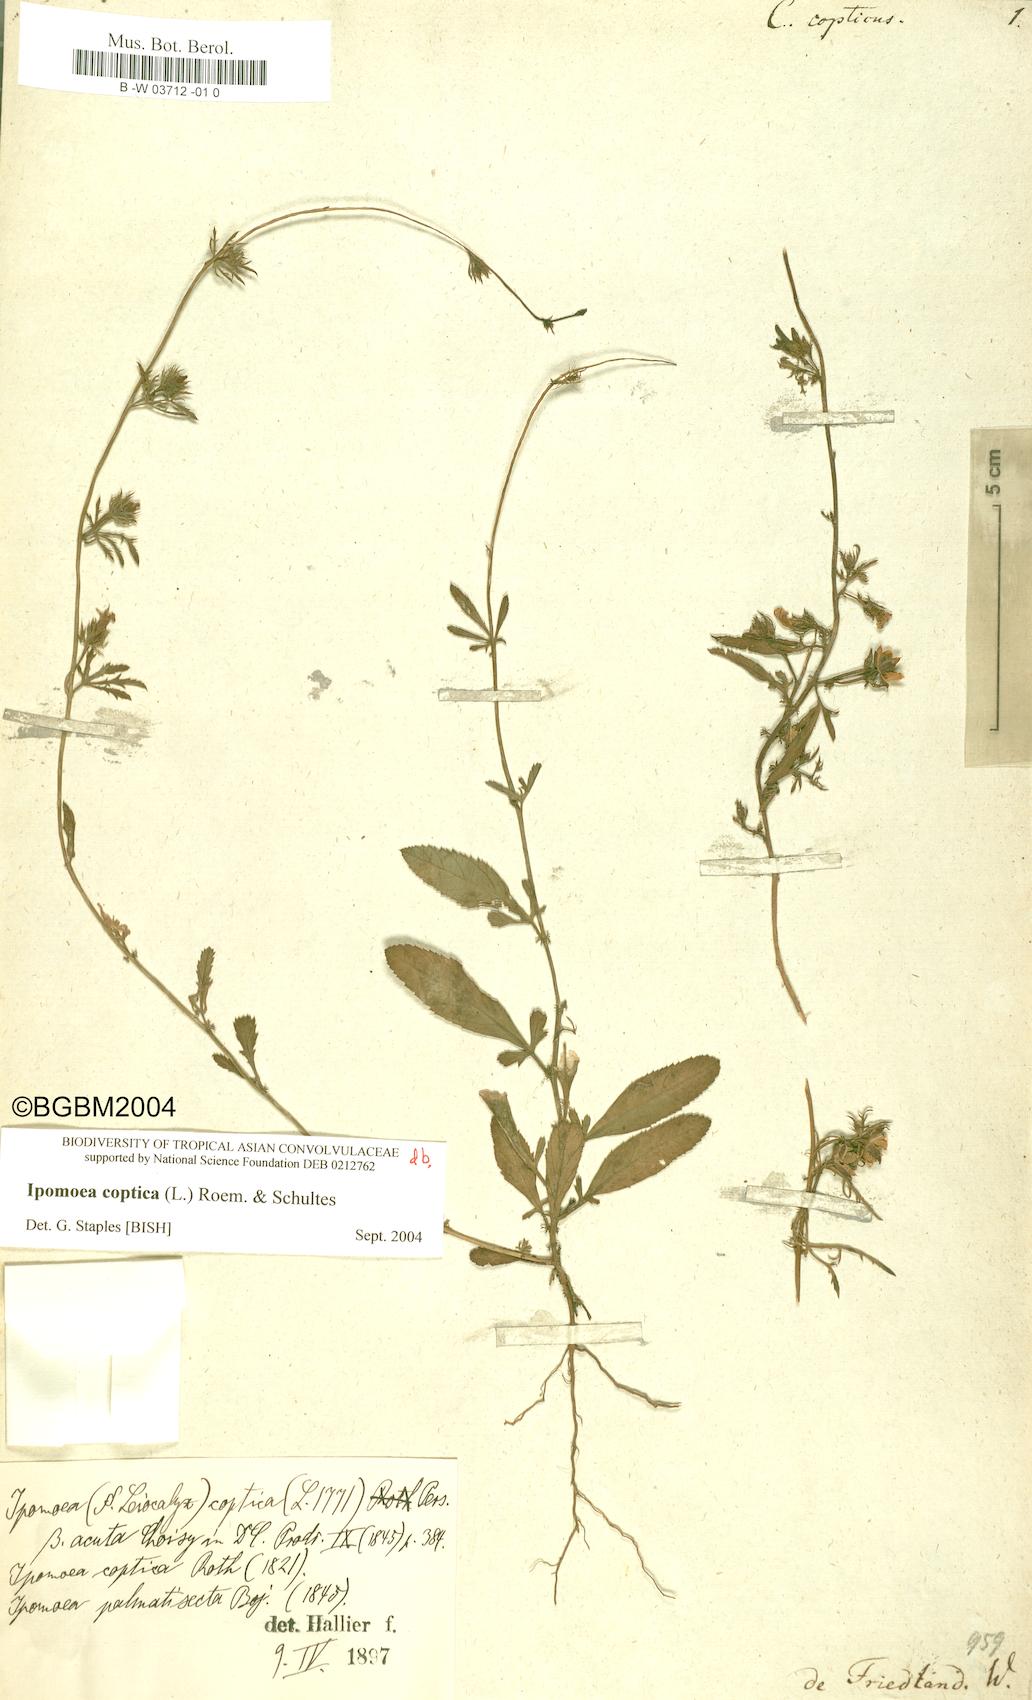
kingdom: Plantae
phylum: Tracheophyta
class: Magnoliopsida
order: Solanales
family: Convolvulaceae
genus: Ipomoea
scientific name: Ipomoea coptica
